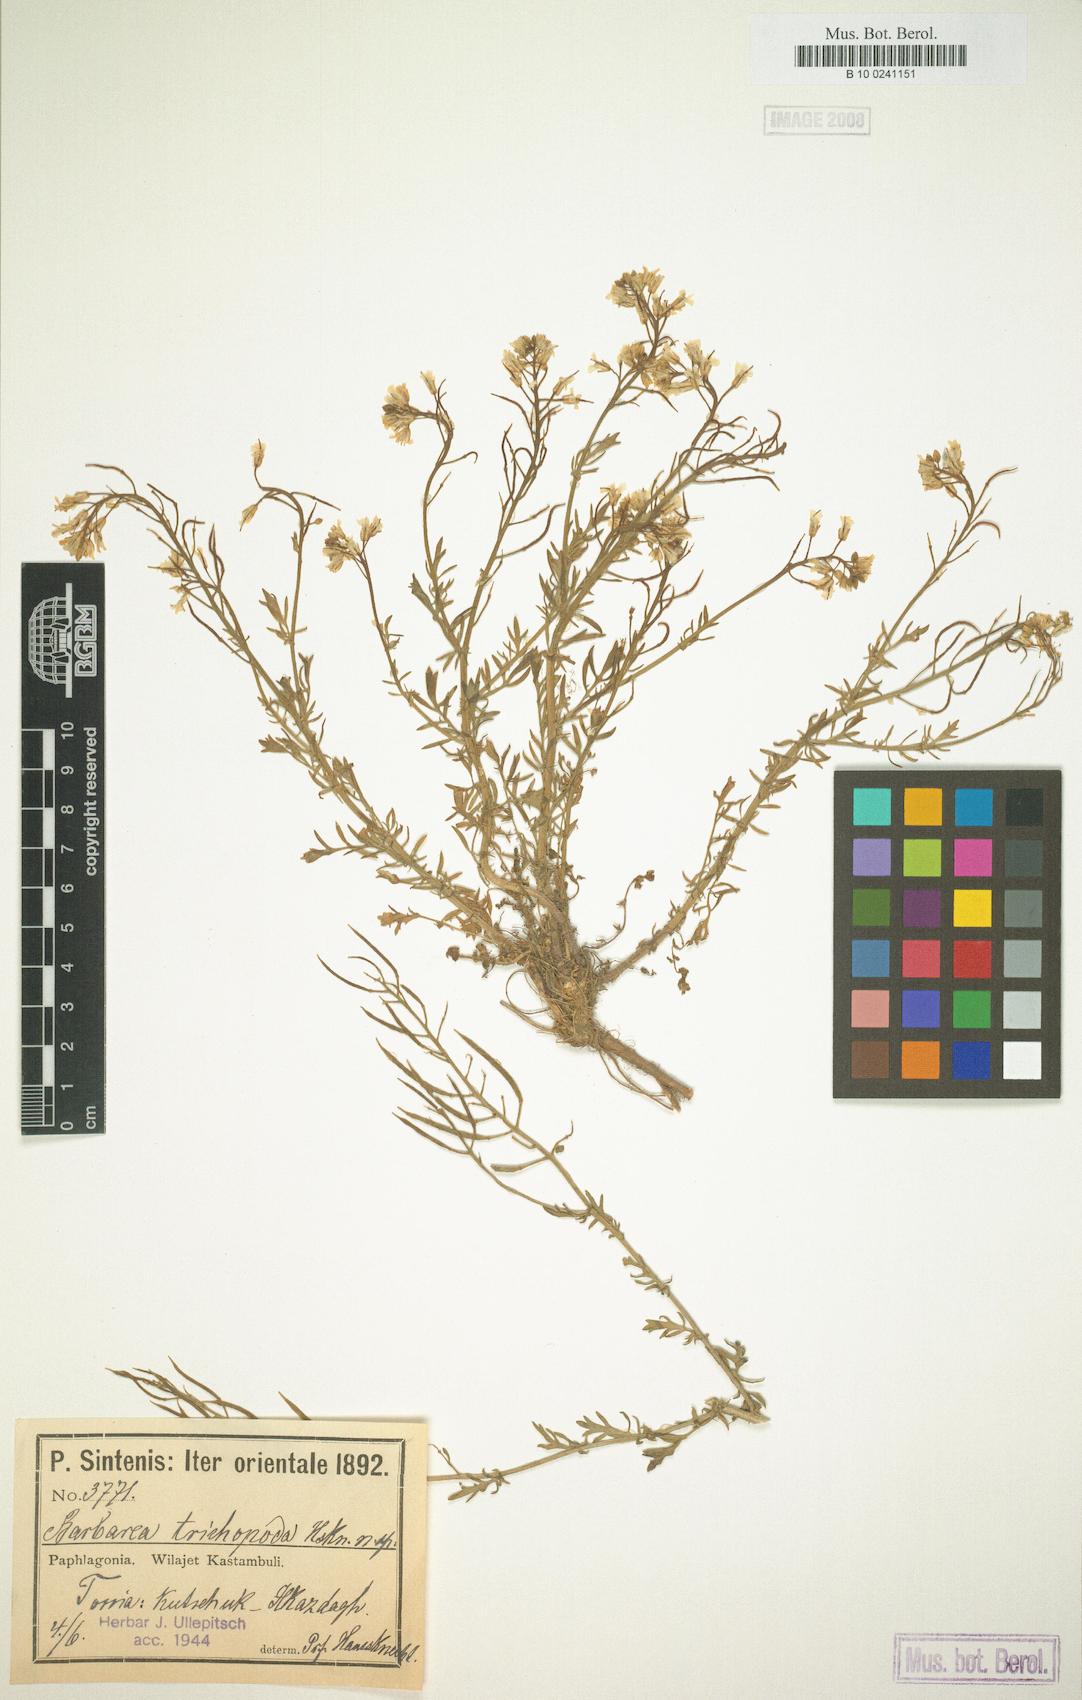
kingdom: Plantae
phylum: Tracheophyta
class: Magnoliopsida
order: Brassicales
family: Brassicaceae
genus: Barbarea
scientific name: Barbarea trichopoda
